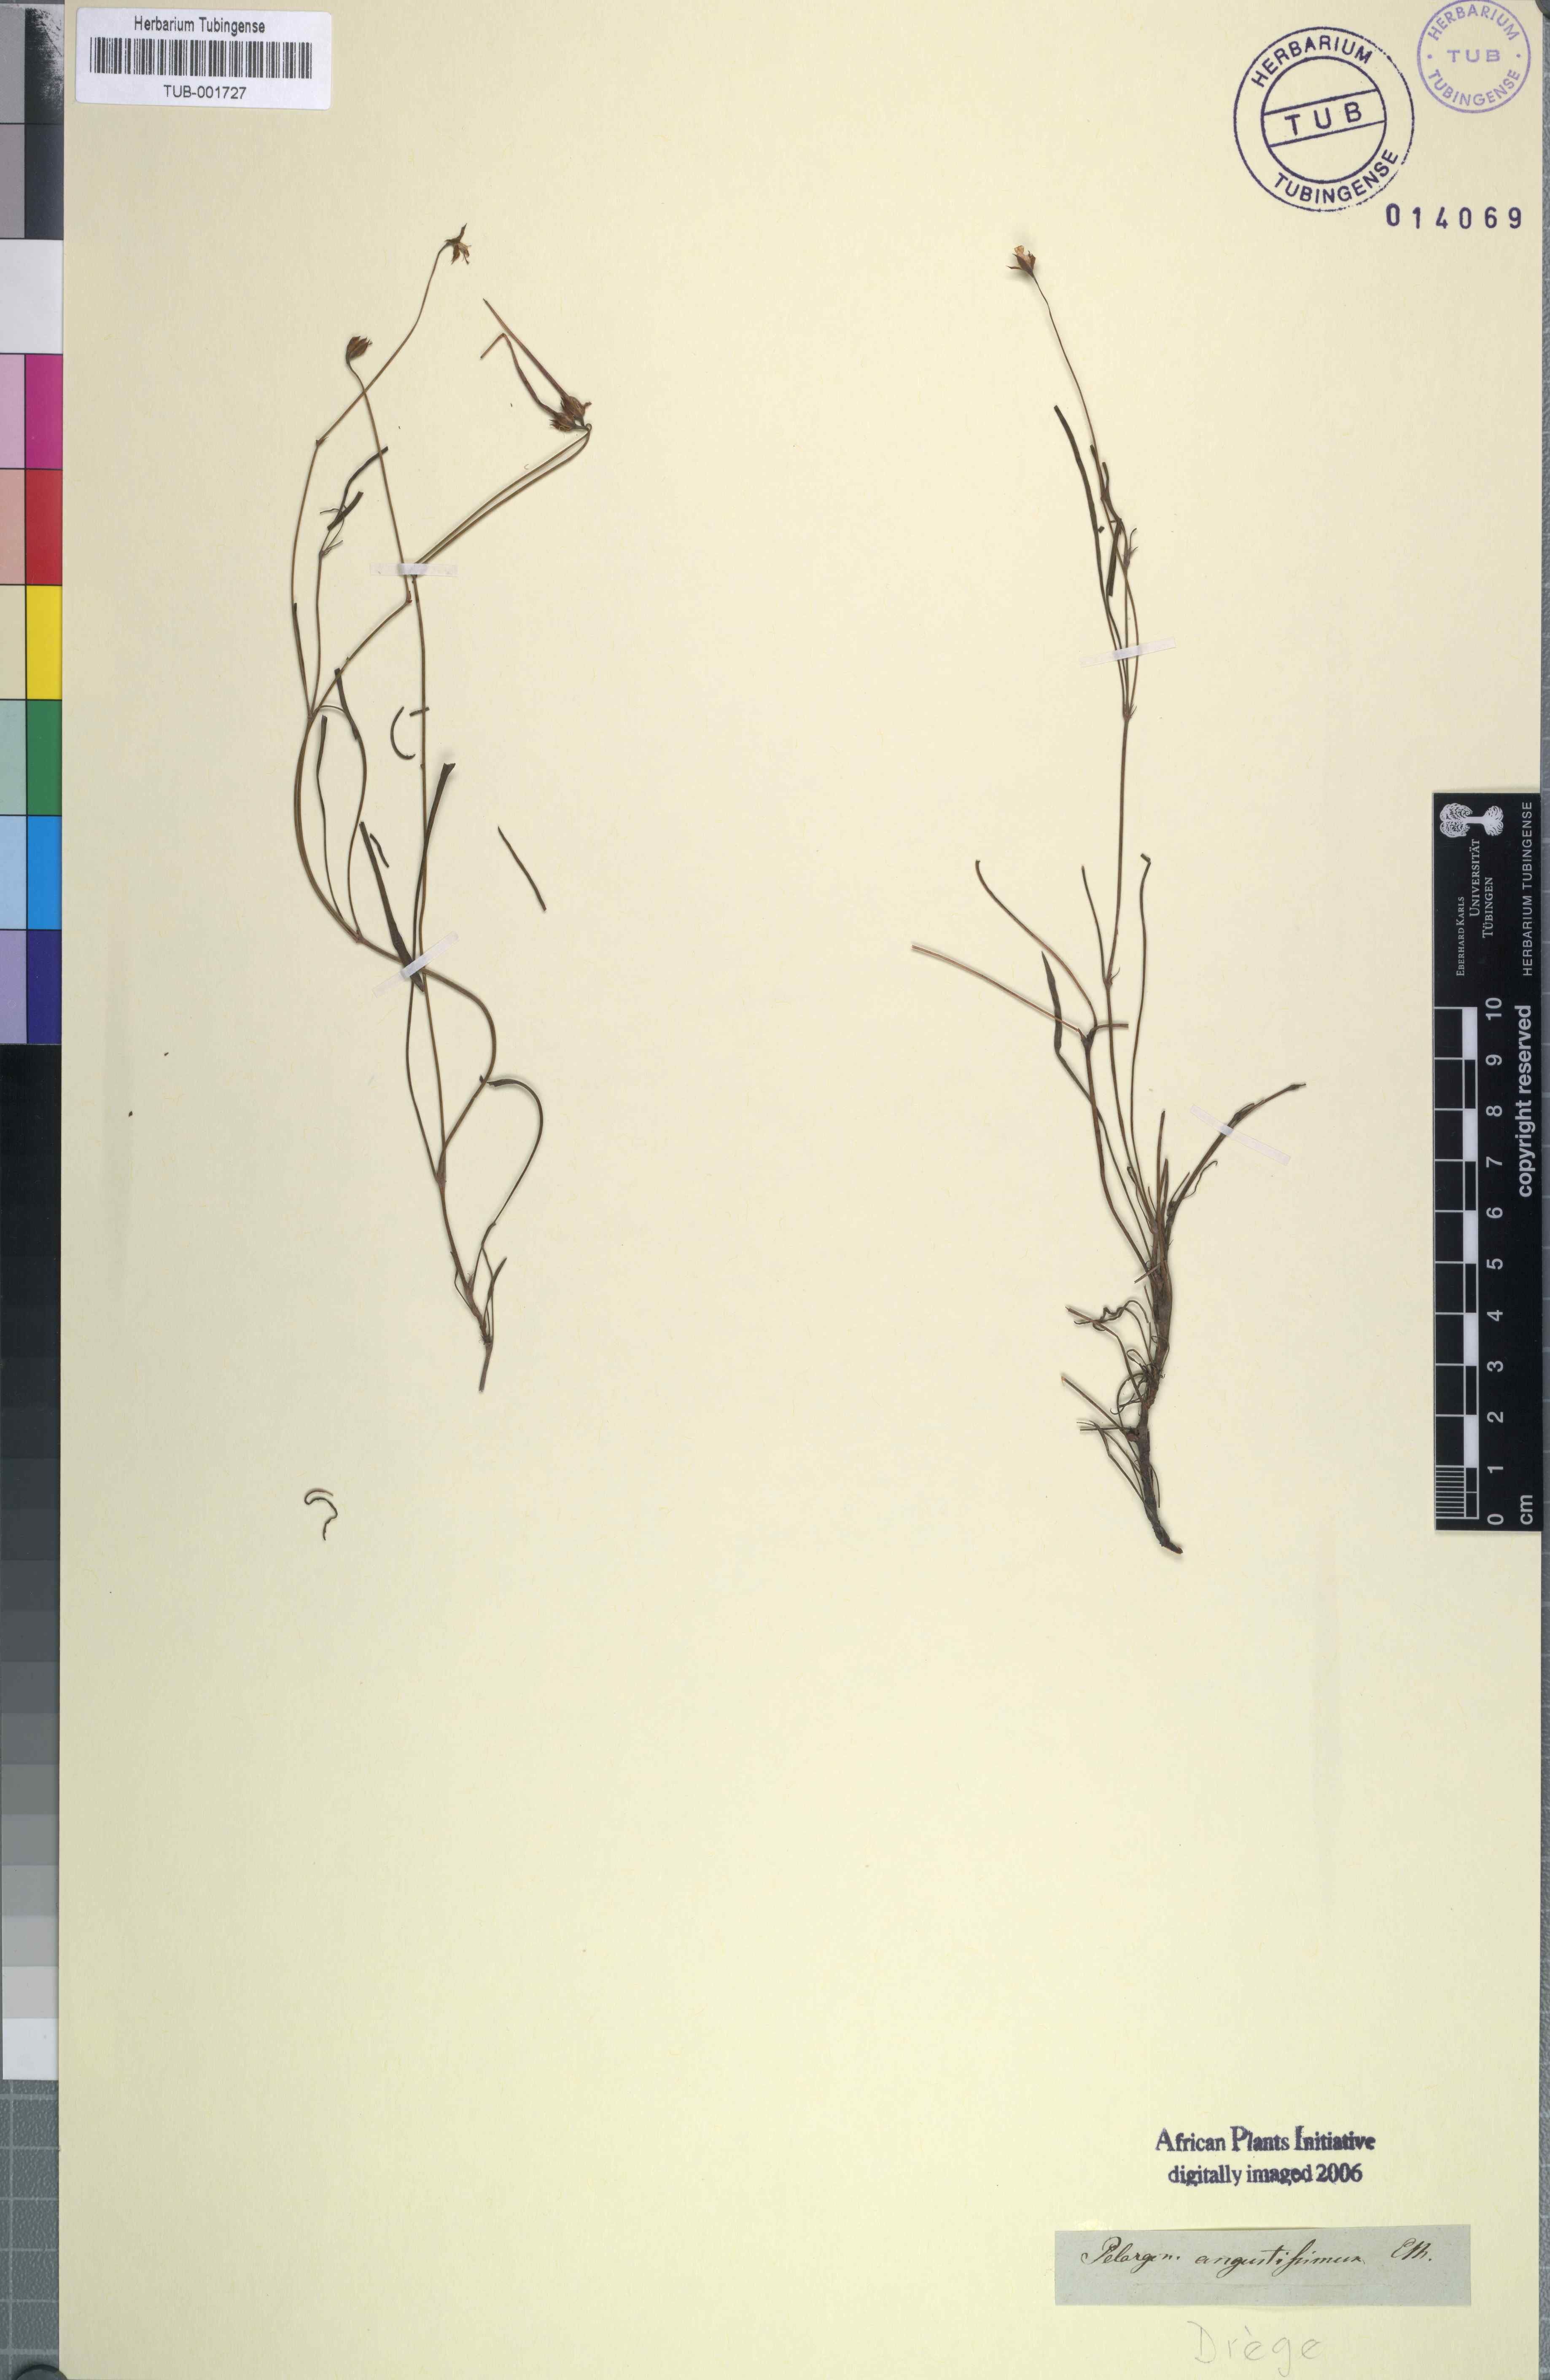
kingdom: Plantae
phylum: Tracheophyta
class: Magnoliopsida
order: Geraniales
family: Geraniaceae
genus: Pelargonium
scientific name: Pelargonium coronopifolium
